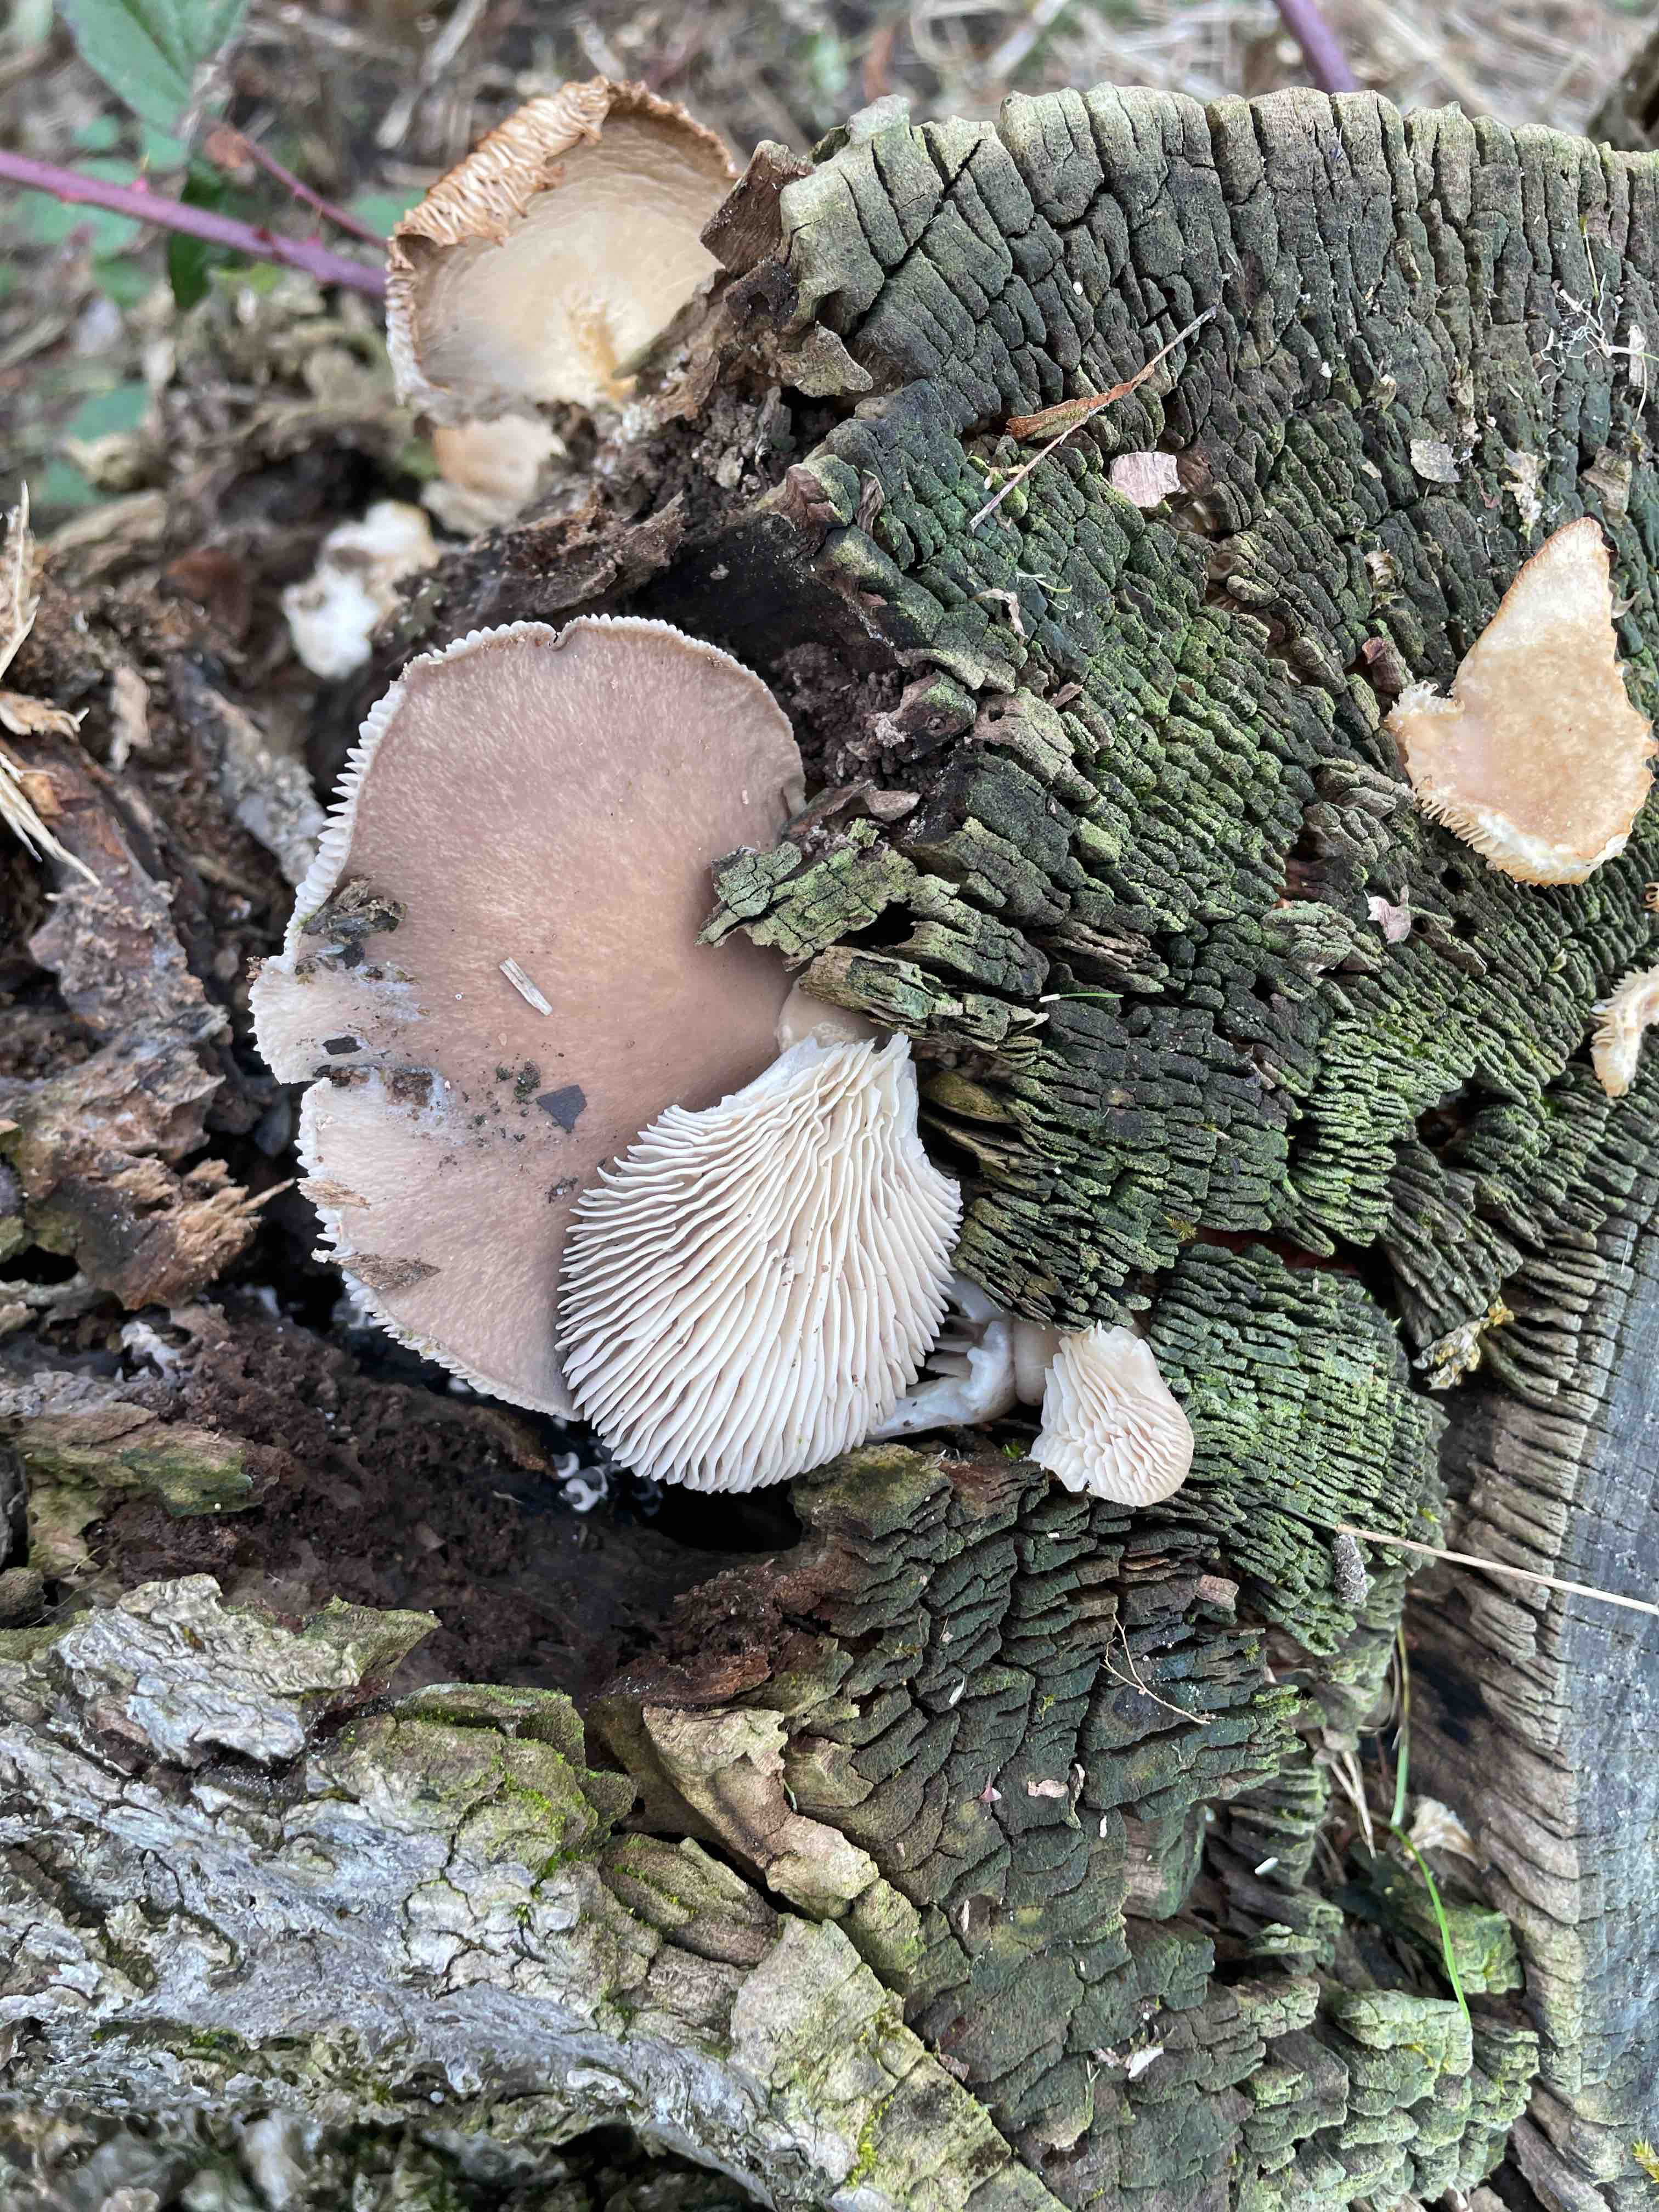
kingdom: Fungi
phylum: Basidiomycota
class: Agaricomycetes
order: Agaricales
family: Pleurotaceae
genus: Pleurotus
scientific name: Pleurotus ostreatus
